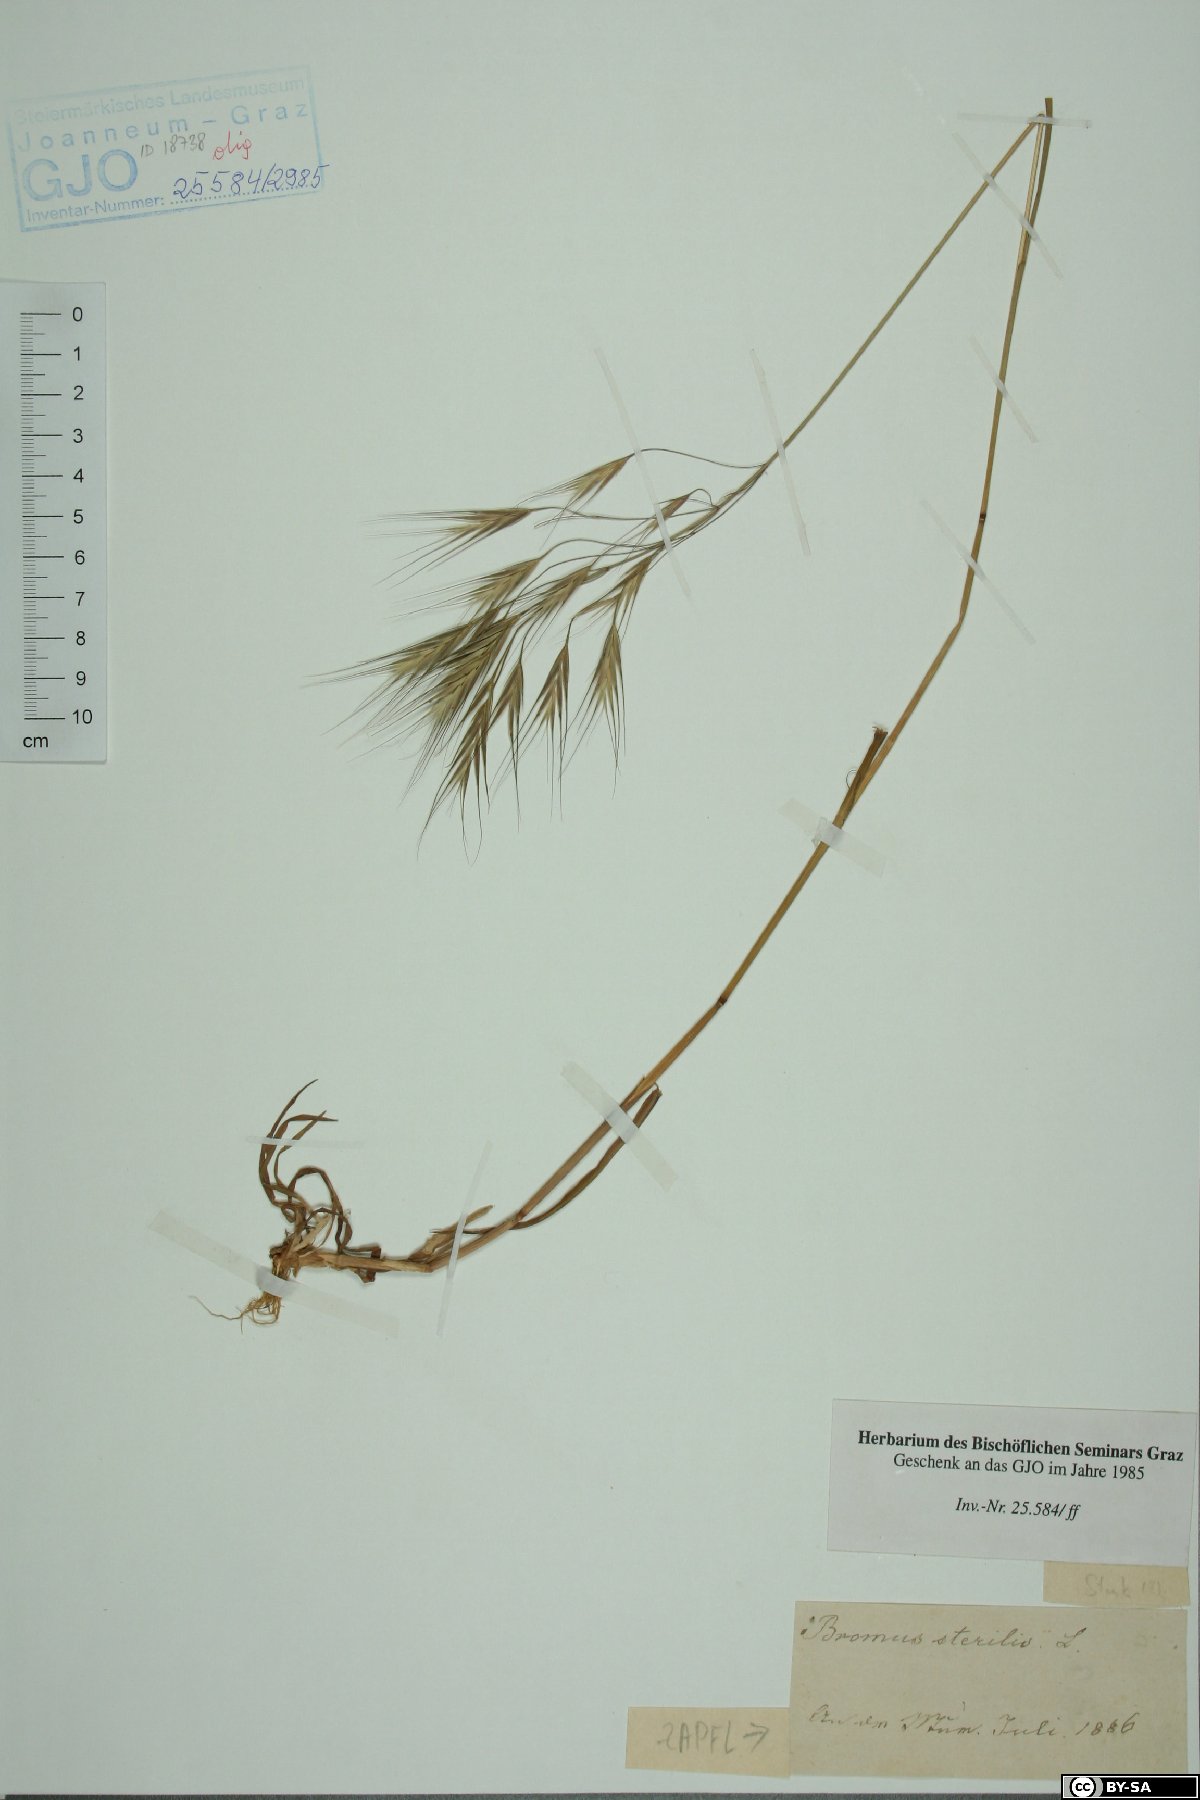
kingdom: Plantae
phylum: Tracheophyta
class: Liliopsida
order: Poales
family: Poaceae
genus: Bromus
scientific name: Bromus sterilis
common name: Poverty brome
